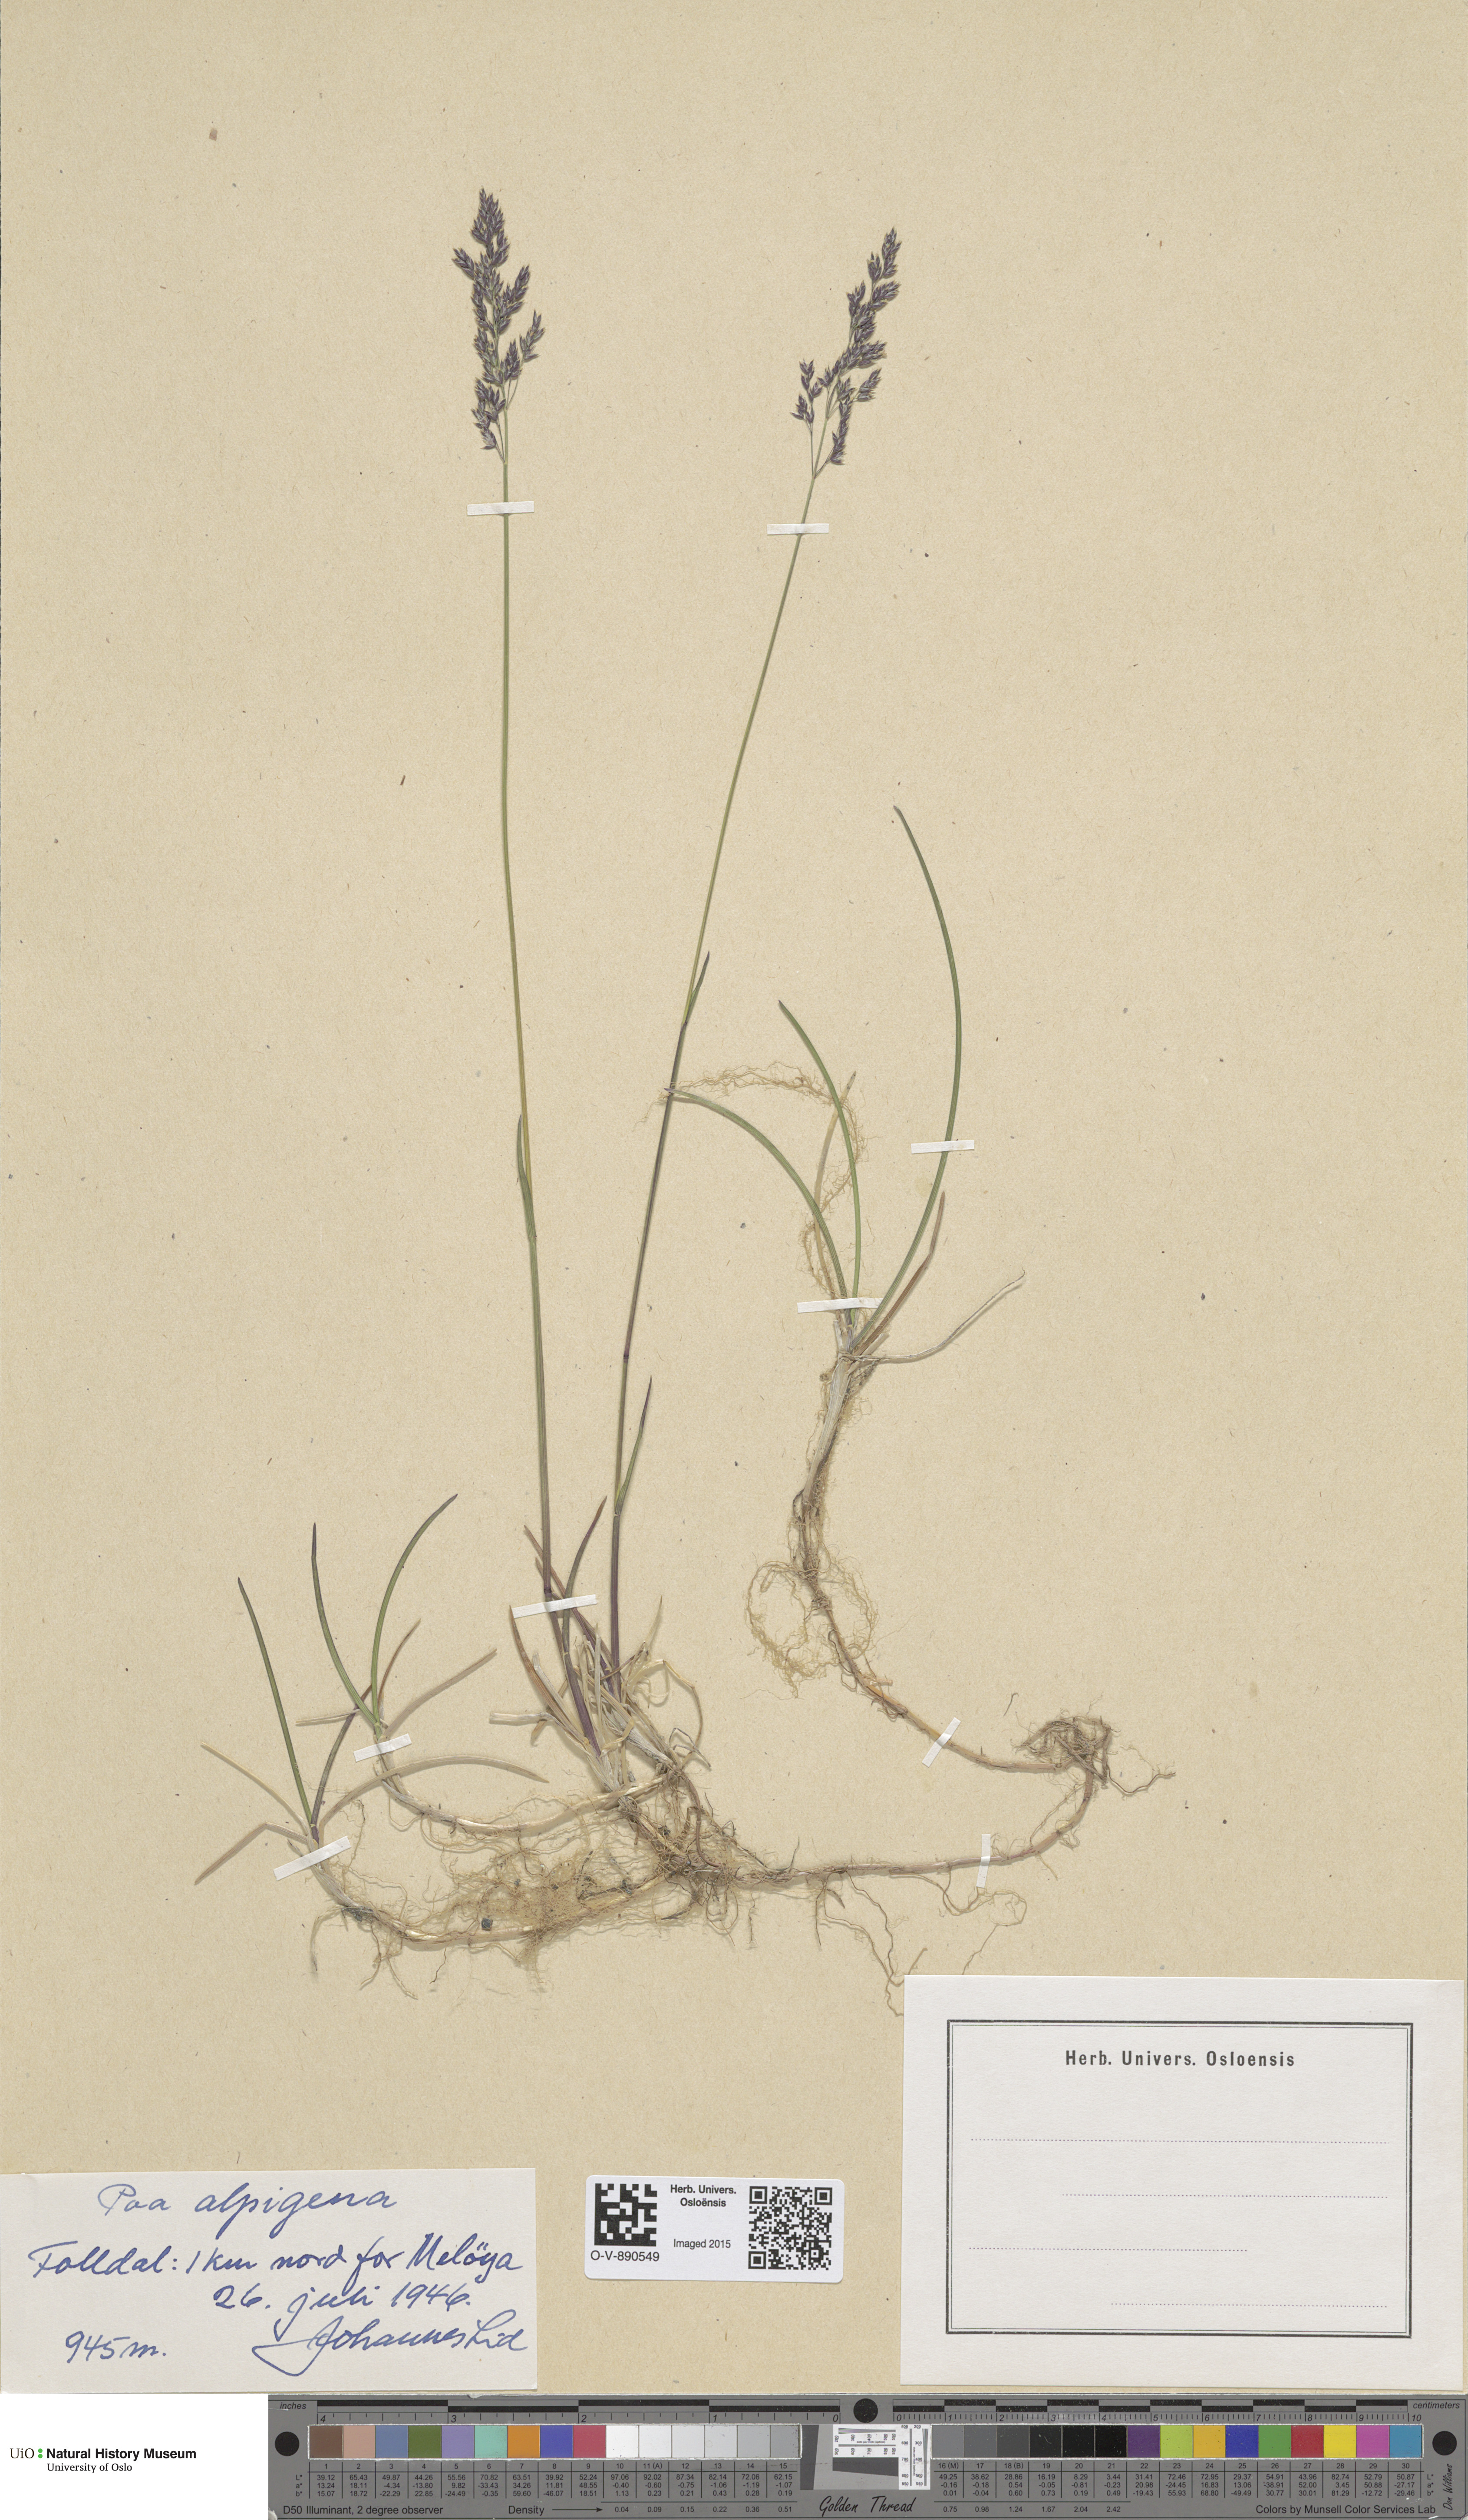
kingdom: Plantae
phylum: Tracheophyta
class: Liliopsida
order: Poales
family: Poaceae
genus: Poa
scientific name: Poa alpigena
